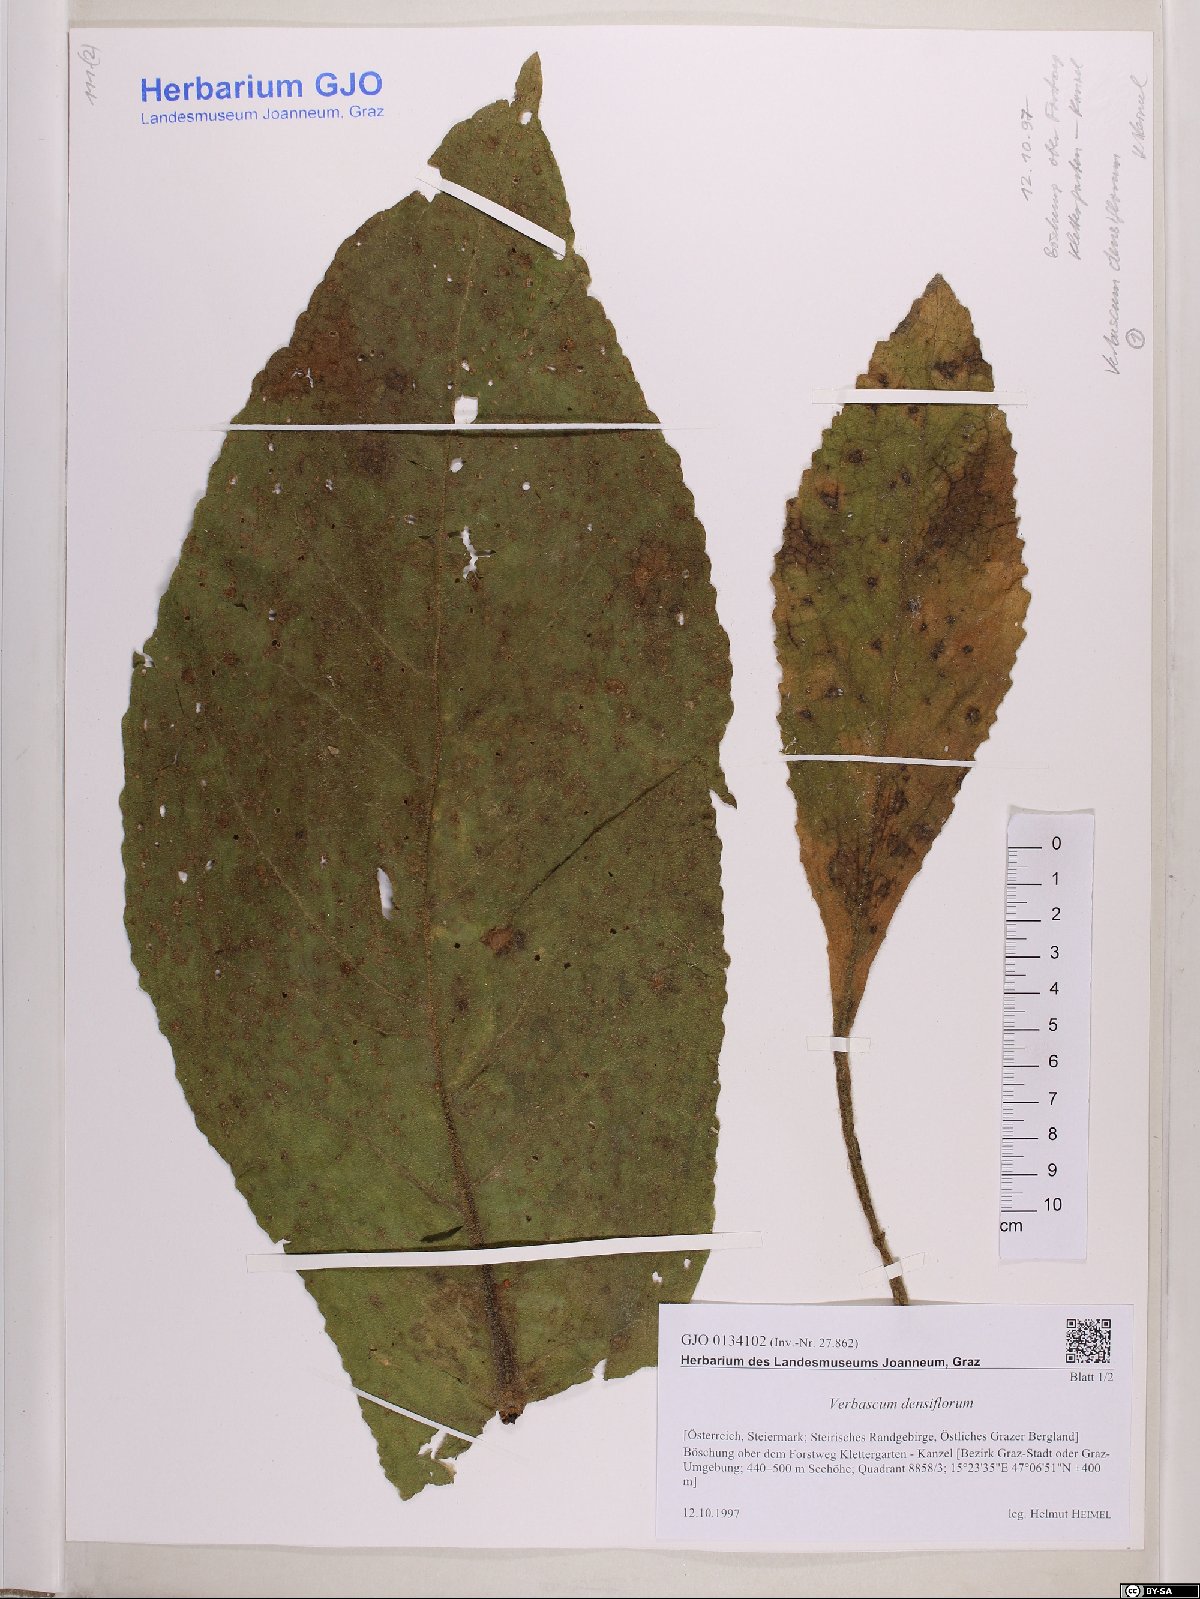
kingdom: Plantae
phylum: Tracheophyta
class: Magnoliopsida
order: Lamiales
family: Scrophulariaceae
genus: Verbascum
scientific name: Verbascum densiflorum
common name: Dense-flowered mullein
